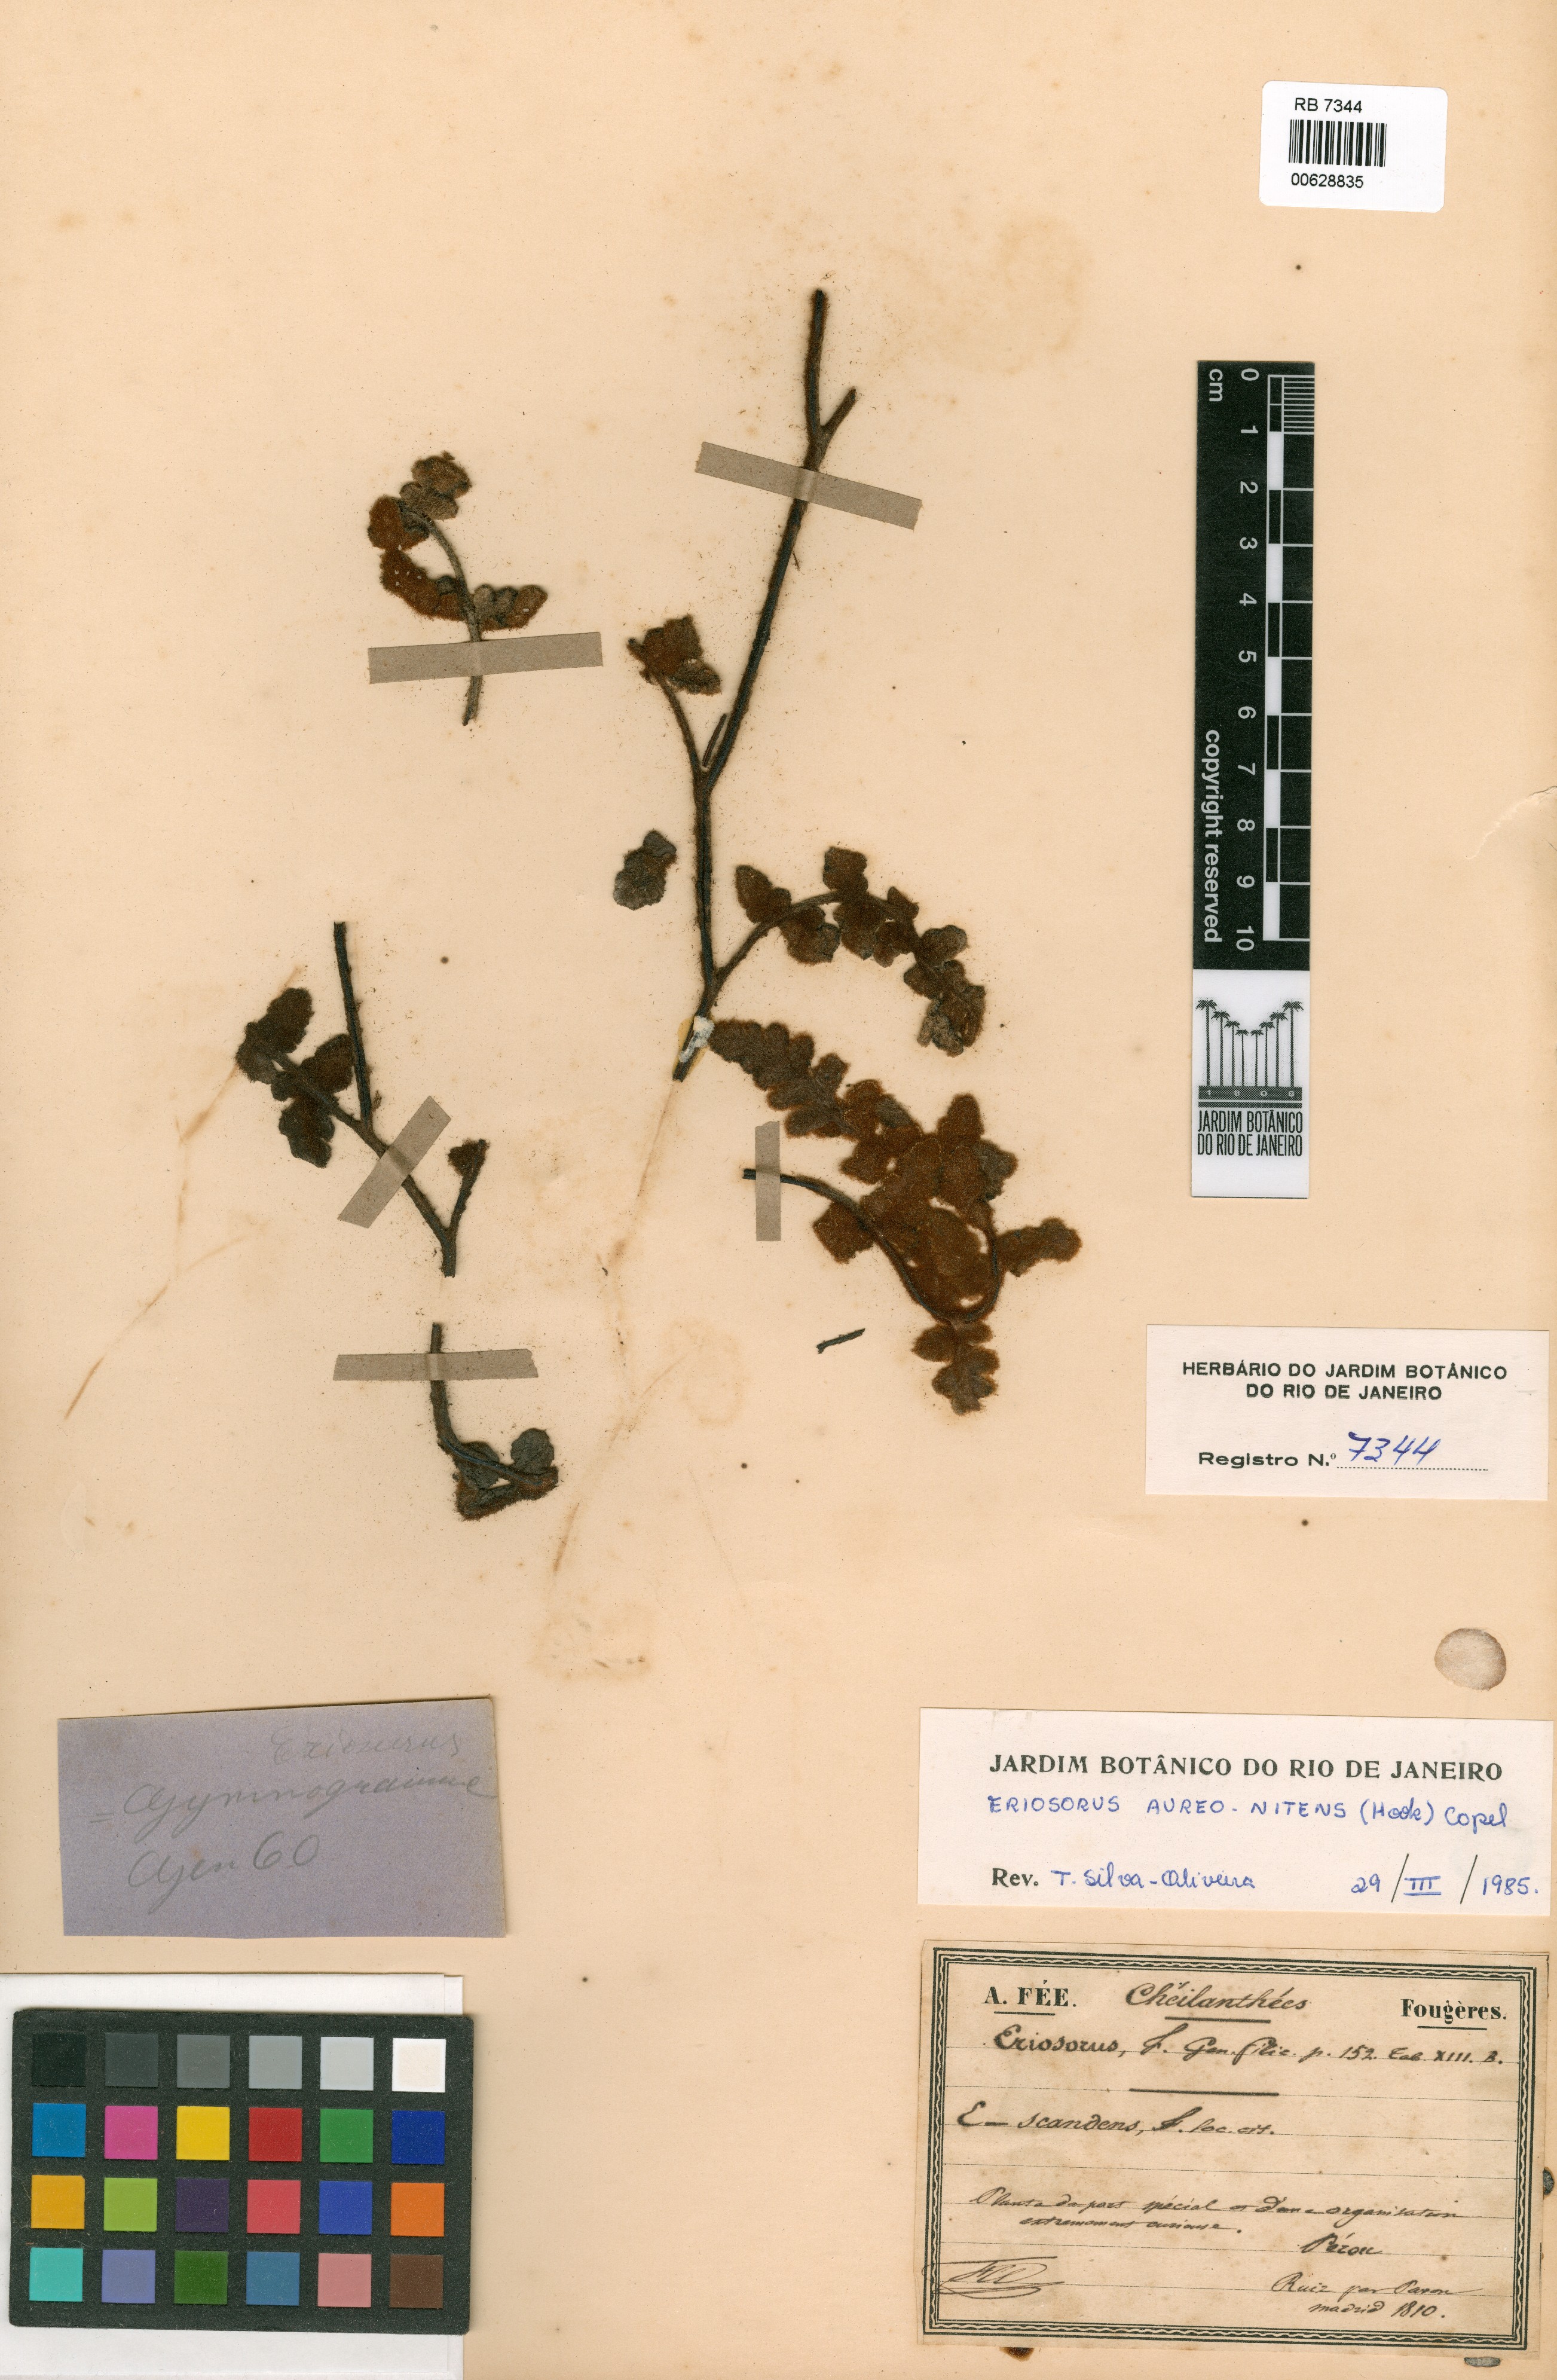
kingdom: Plantae
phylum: Tracheophyta
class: Polypodiopsida
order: Polypodiales
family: Pteridaceae
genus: Jamesonia
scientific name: Jamesonia aureonitens
